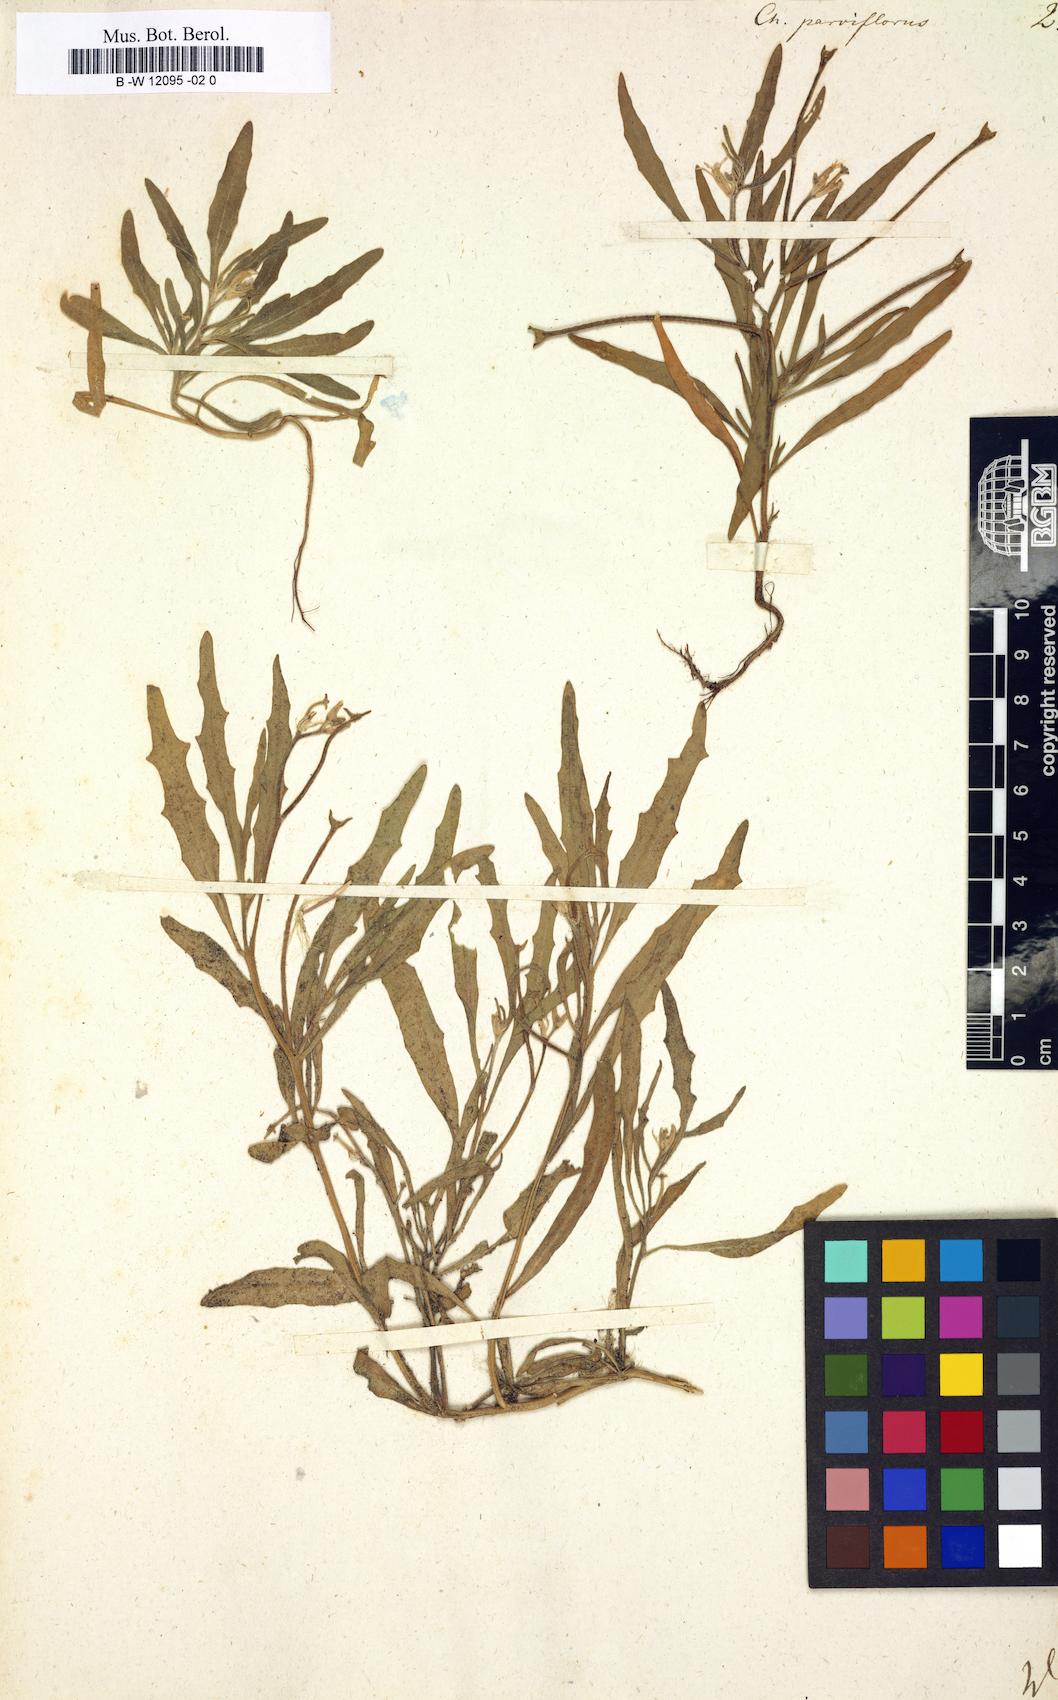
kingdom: Plantae
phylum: Tracheophyta
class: Magnoliopsida
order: Brassicales
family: Brassicaceae
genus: Matthiola
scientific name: Matthiola
